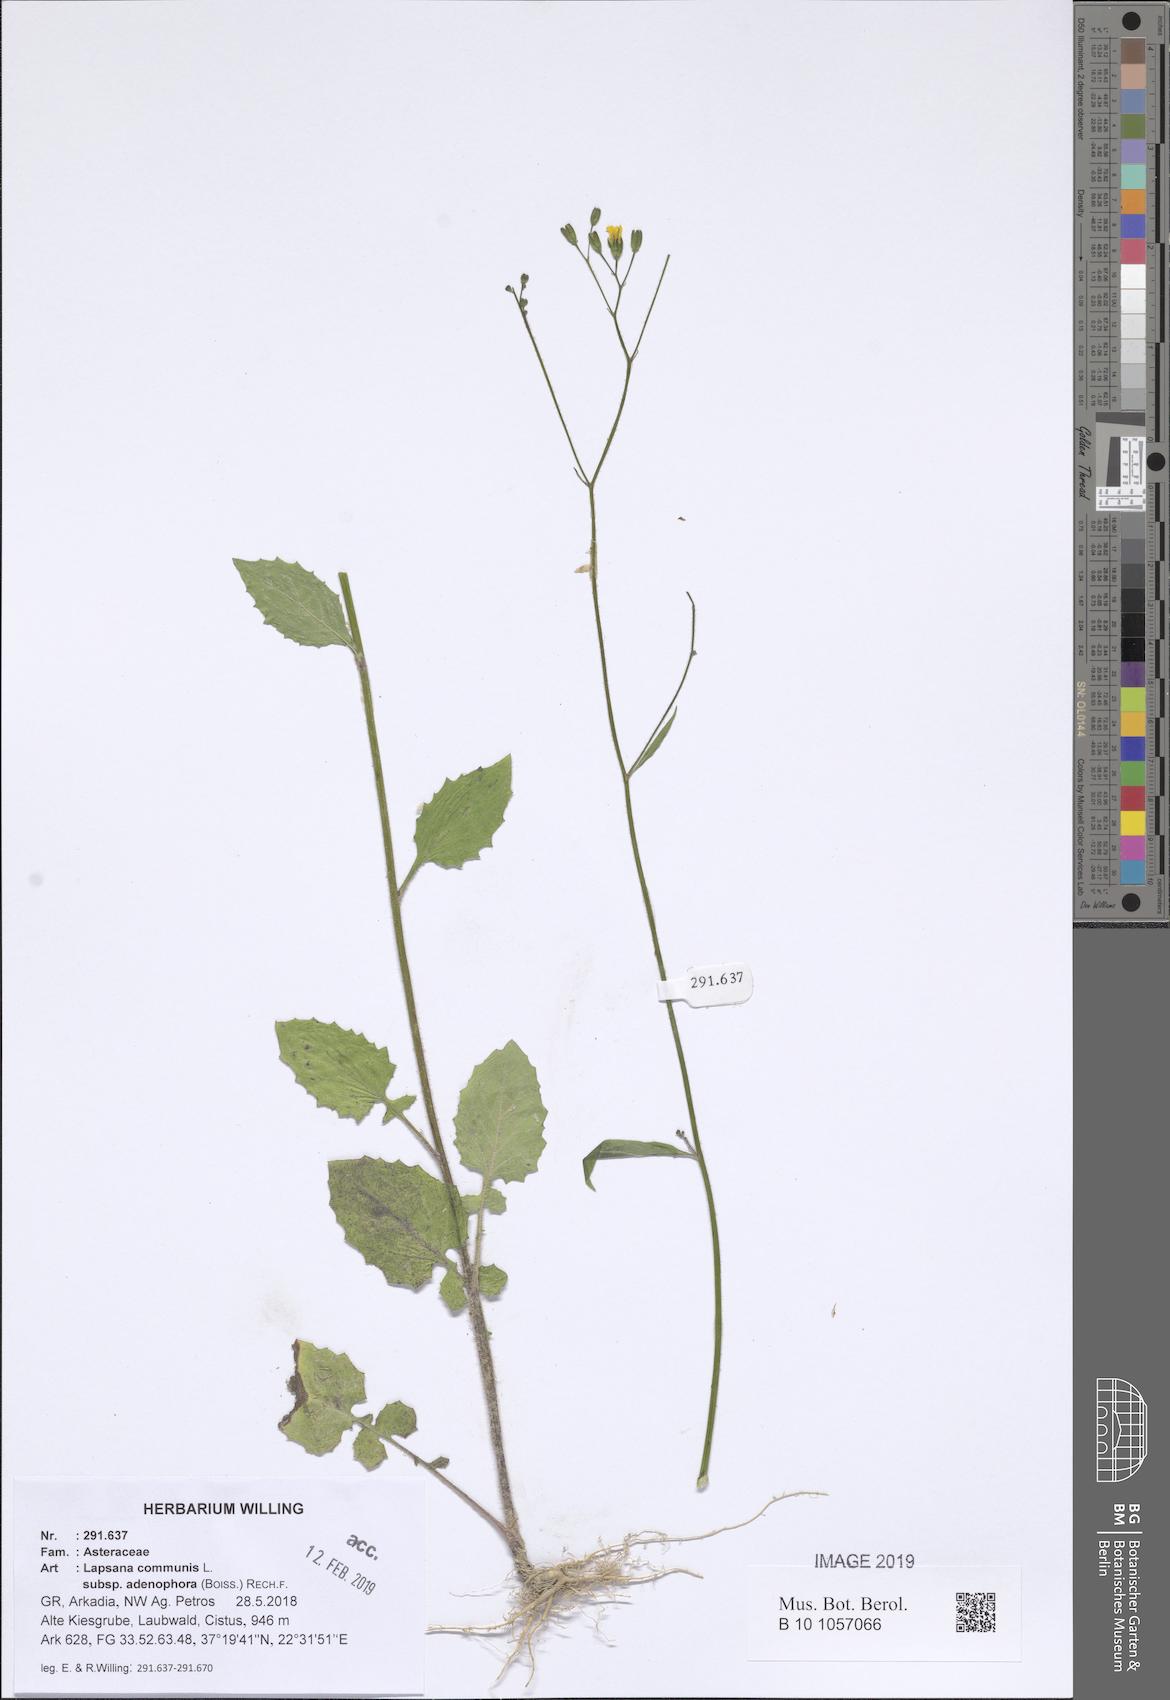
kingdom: Plantae
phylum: Tracheophyta
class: Magnoliopsida
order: Asterales
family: Asteraceae
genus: Lapsana
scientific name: Lapsana communis
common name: Nipplewort
